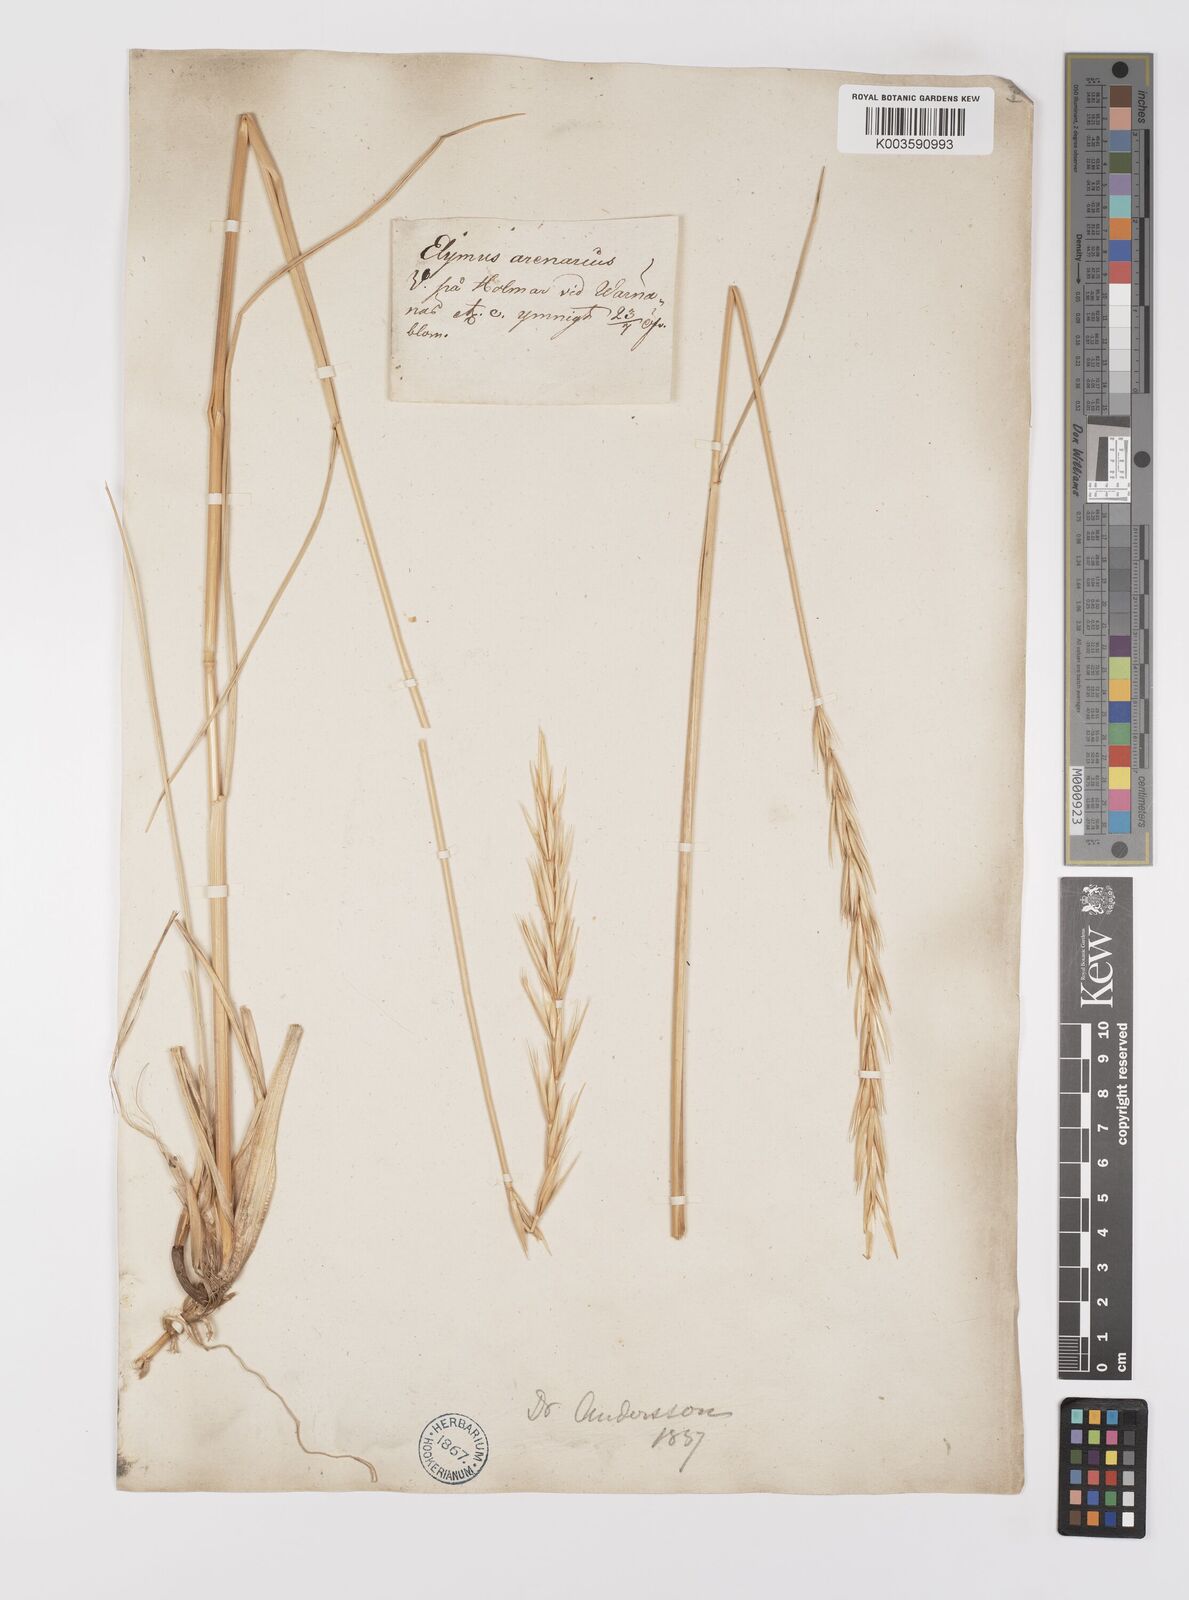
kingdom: Plantae
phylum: Tracheophyta
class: Liliopsida
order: Poales
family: Poaceae
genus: Leymus
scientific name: Leymus arenarius
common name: Lyme-grass
